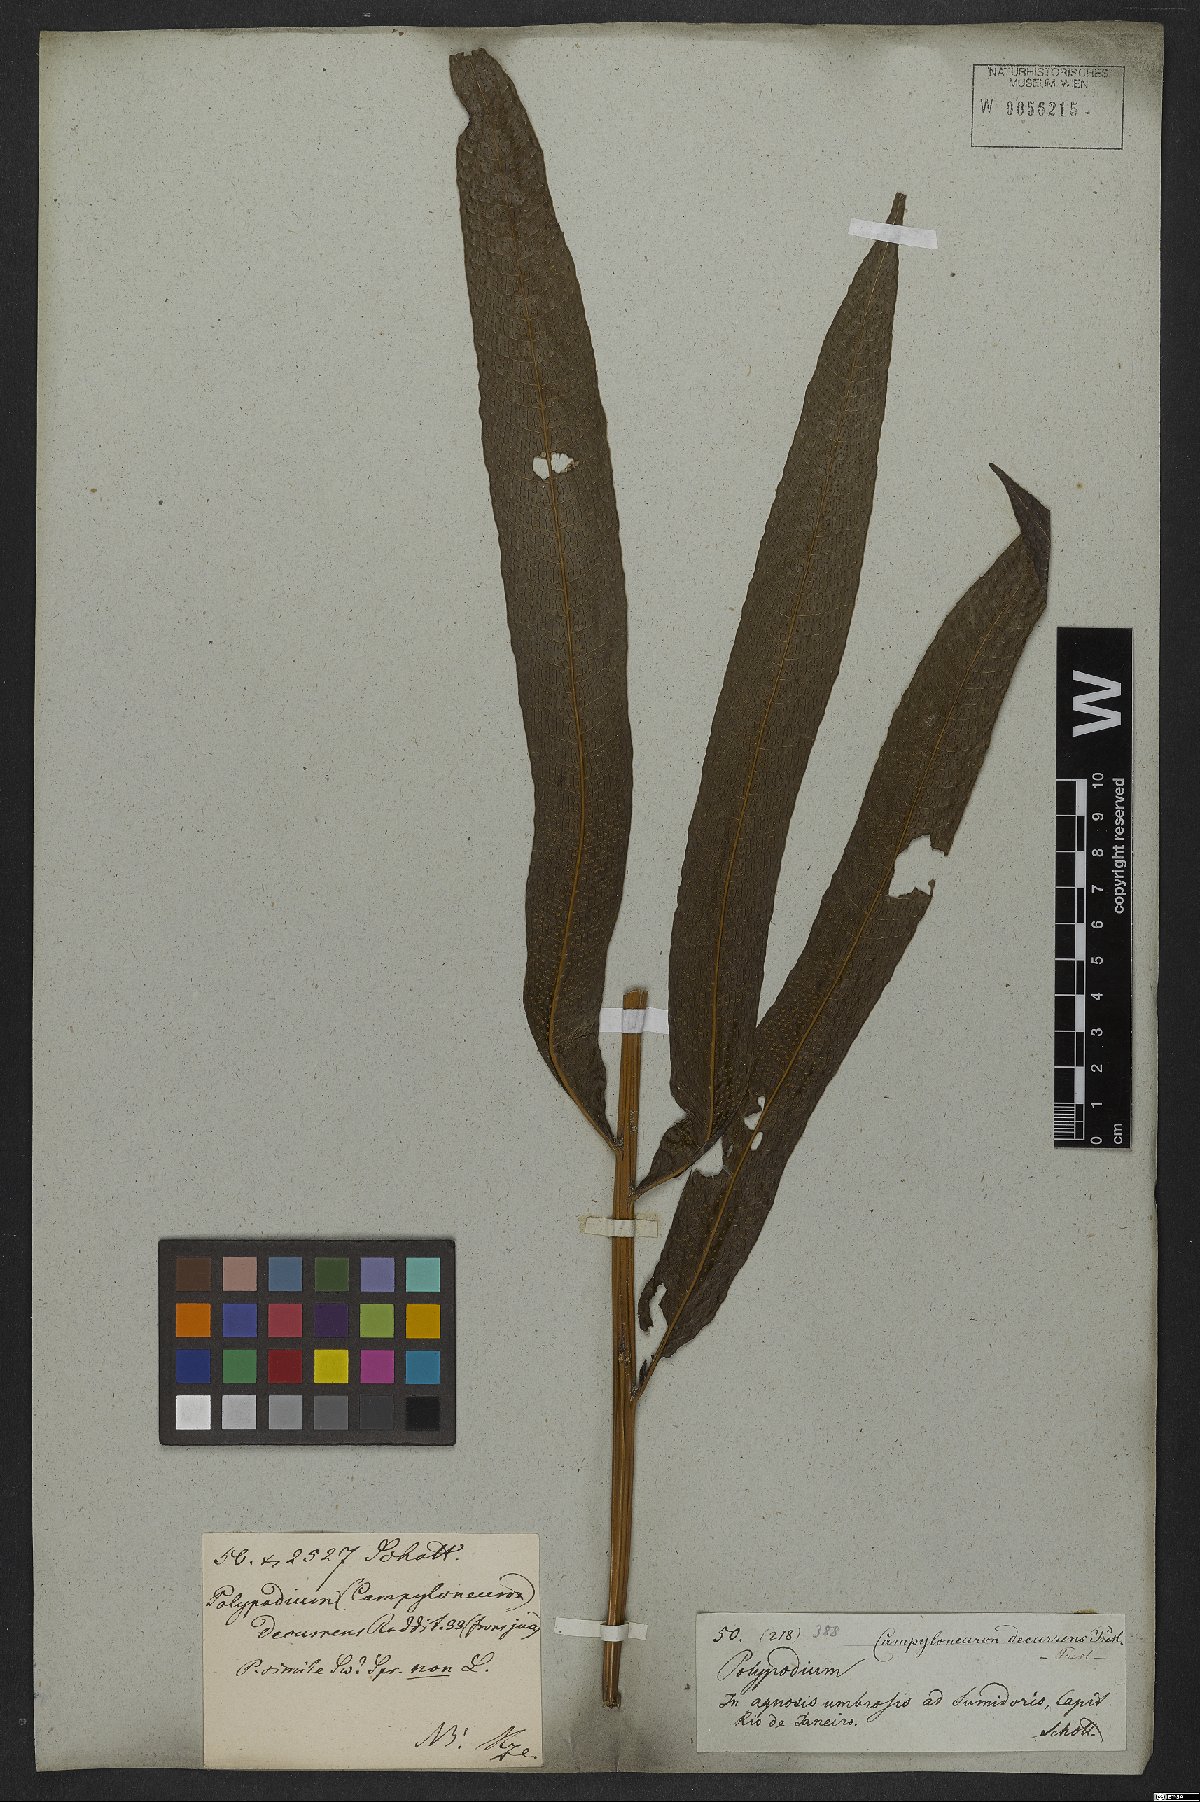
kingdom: Plantae
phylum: Tracheophyta
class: Polypodiopsida
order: Polypodiales
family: Polypodiaceae
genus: Campyloneurum
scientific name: Campyloneurum decurrens
